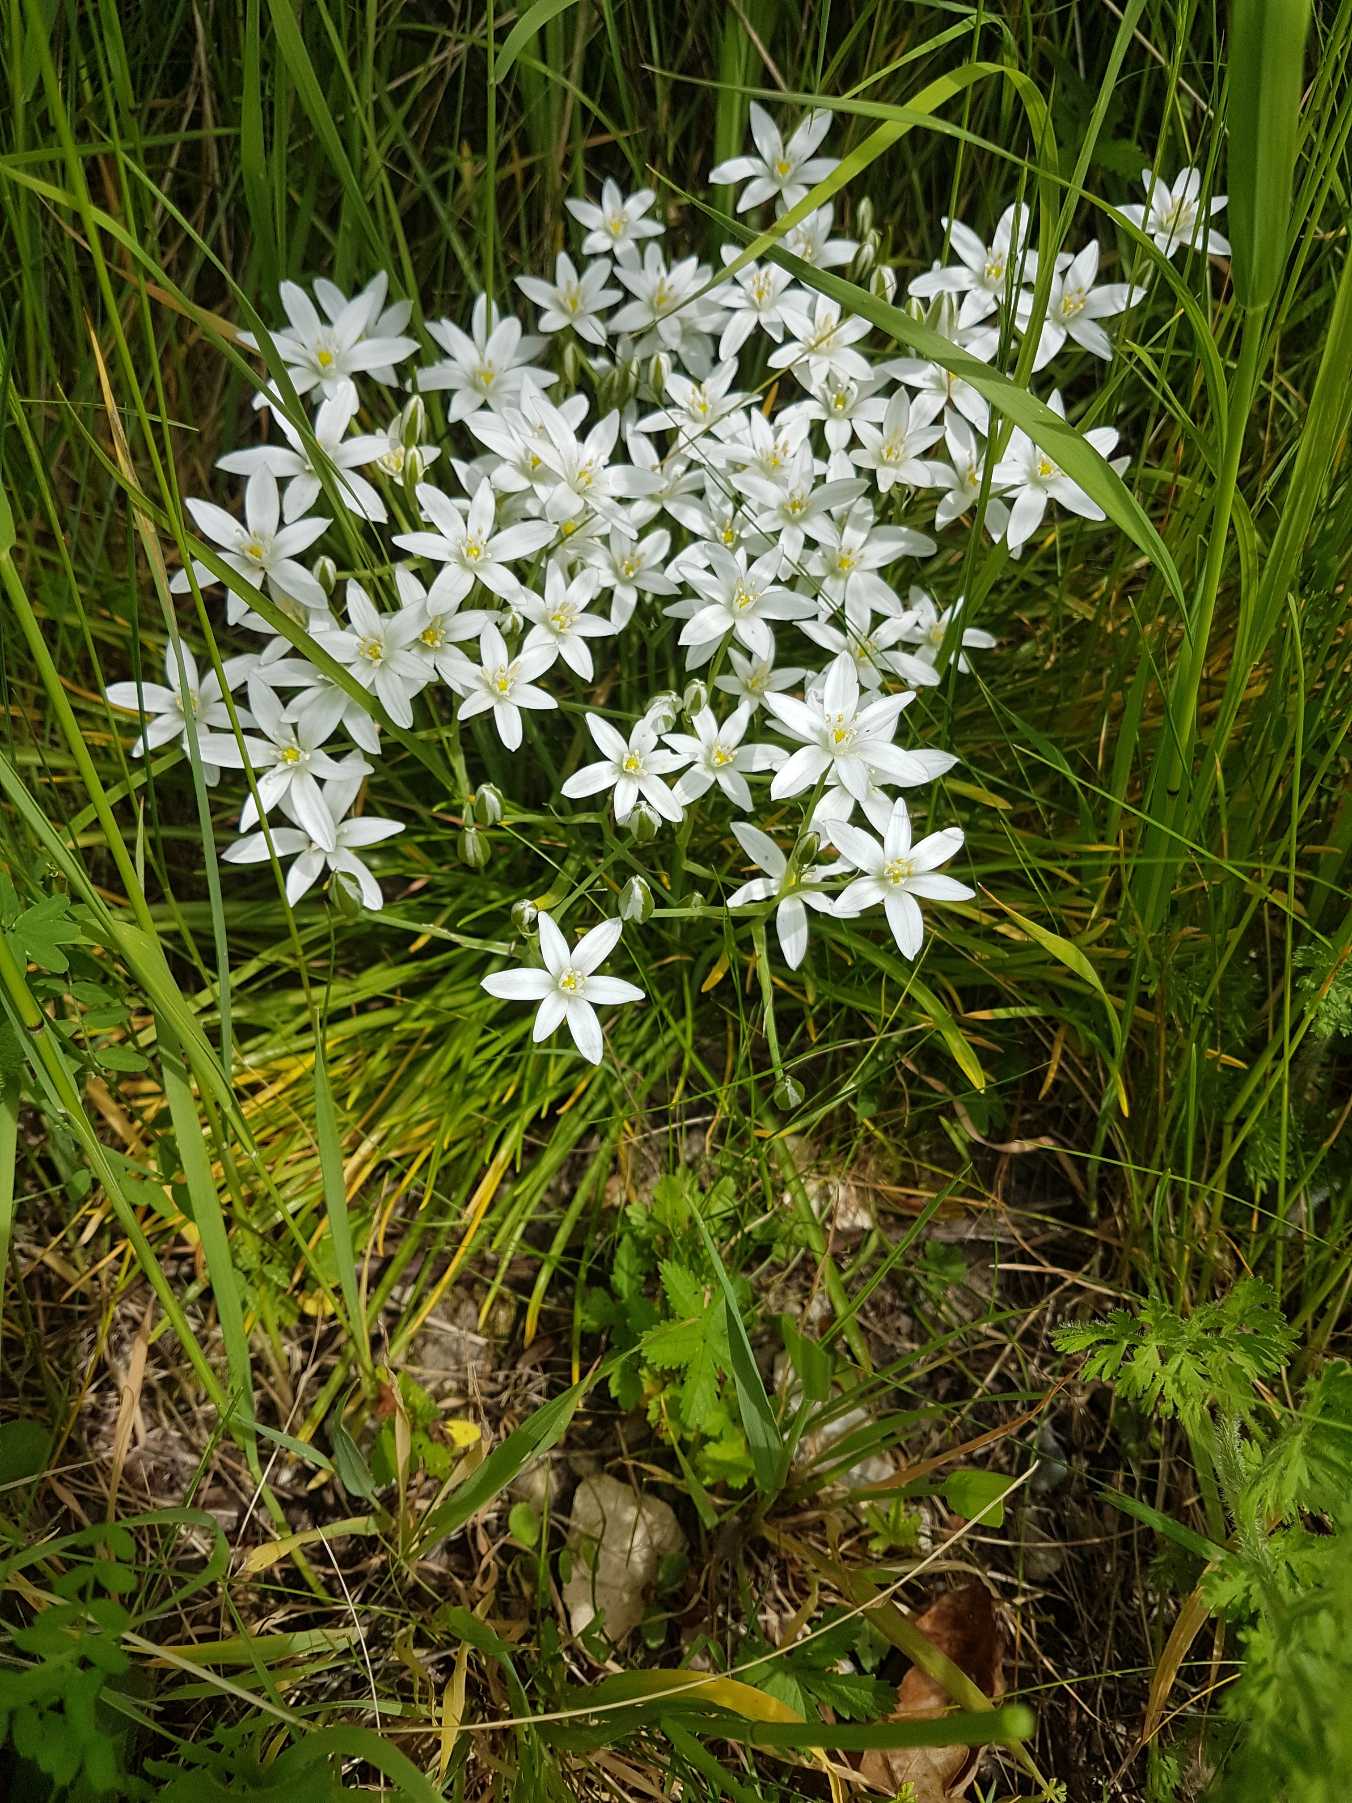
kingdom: Plantae
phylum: Tracheophyta
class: Liliopsida
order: Asparagales
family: Asparagaceae
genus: Ornithogalum
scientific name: Ornithogalum umbellatum
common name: Kost-fuglemælk
